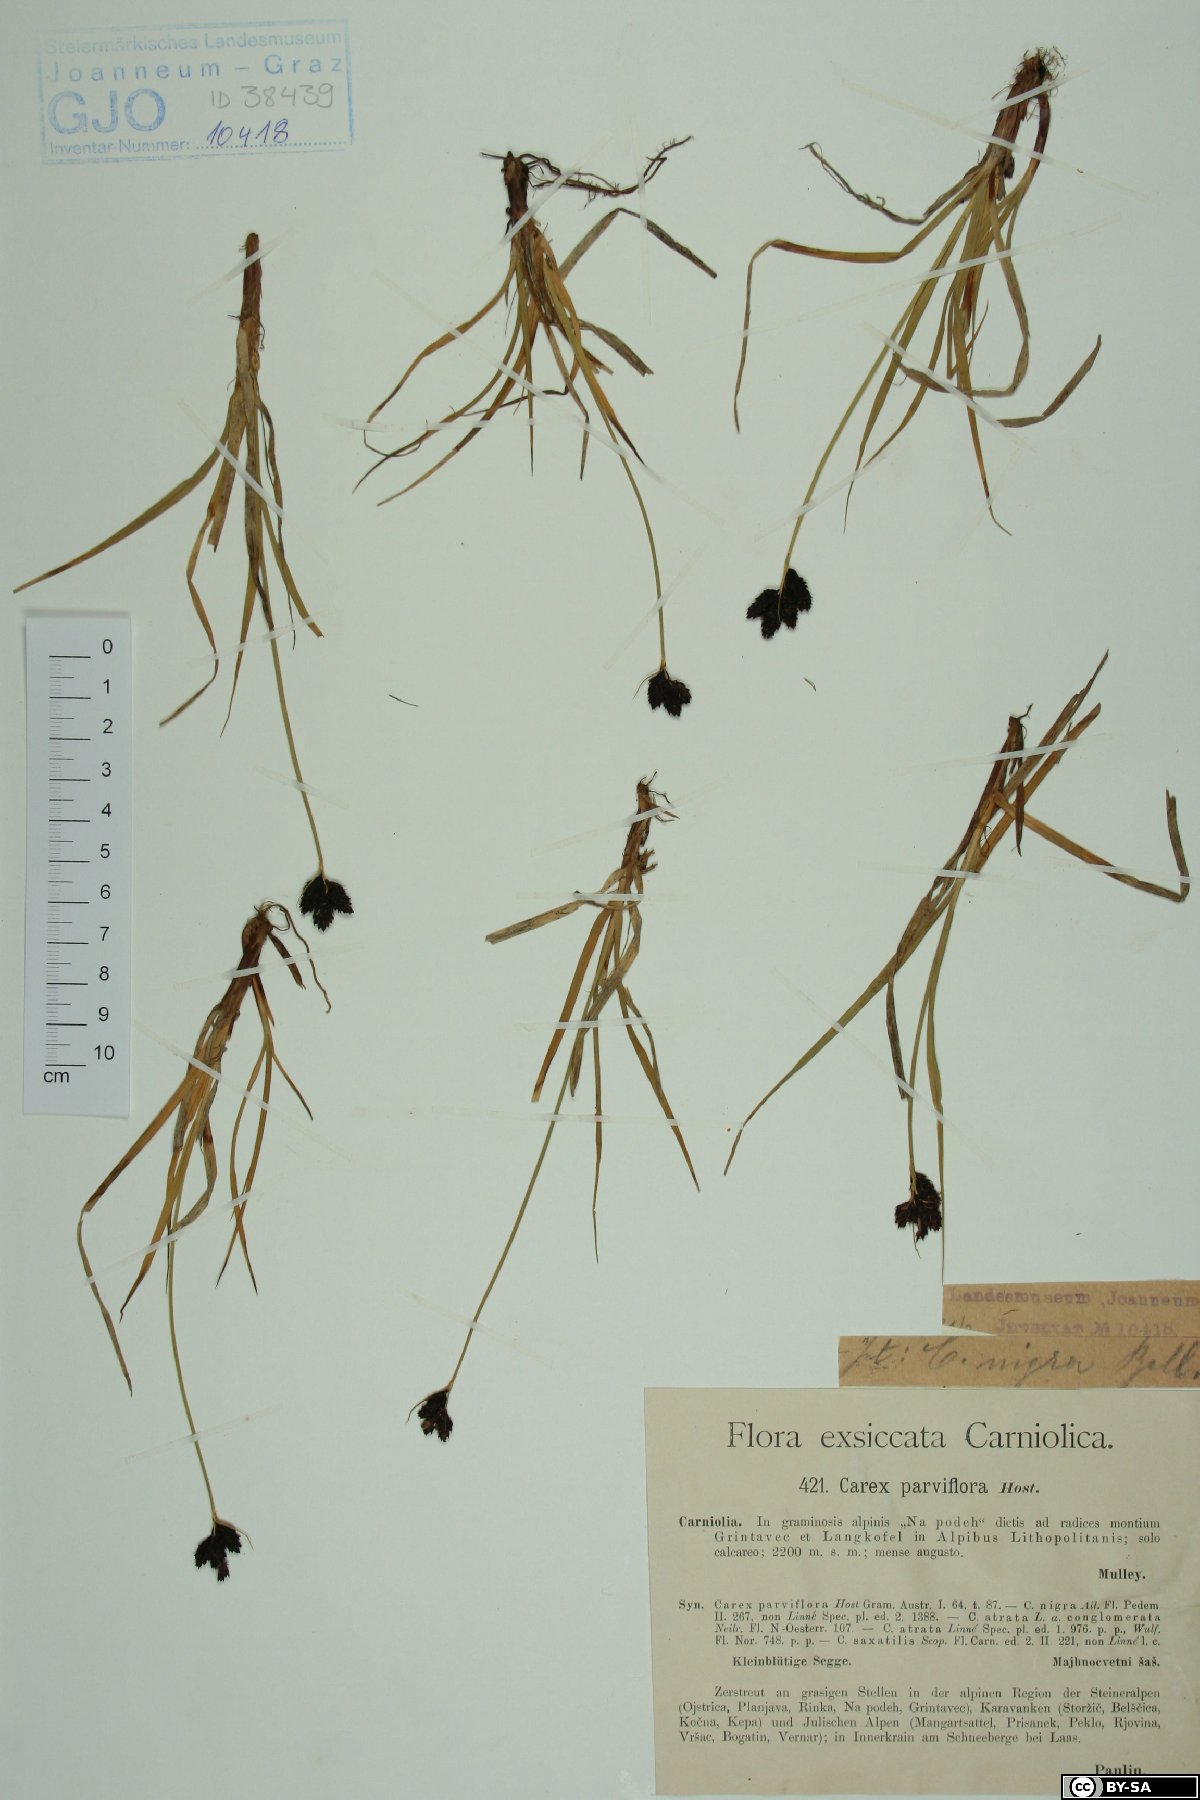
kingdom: Plantae
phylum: Tracheophyta
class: Liliopsida
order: Poales
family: Cyperaceae
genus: Carex
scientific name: Carex parviflora
